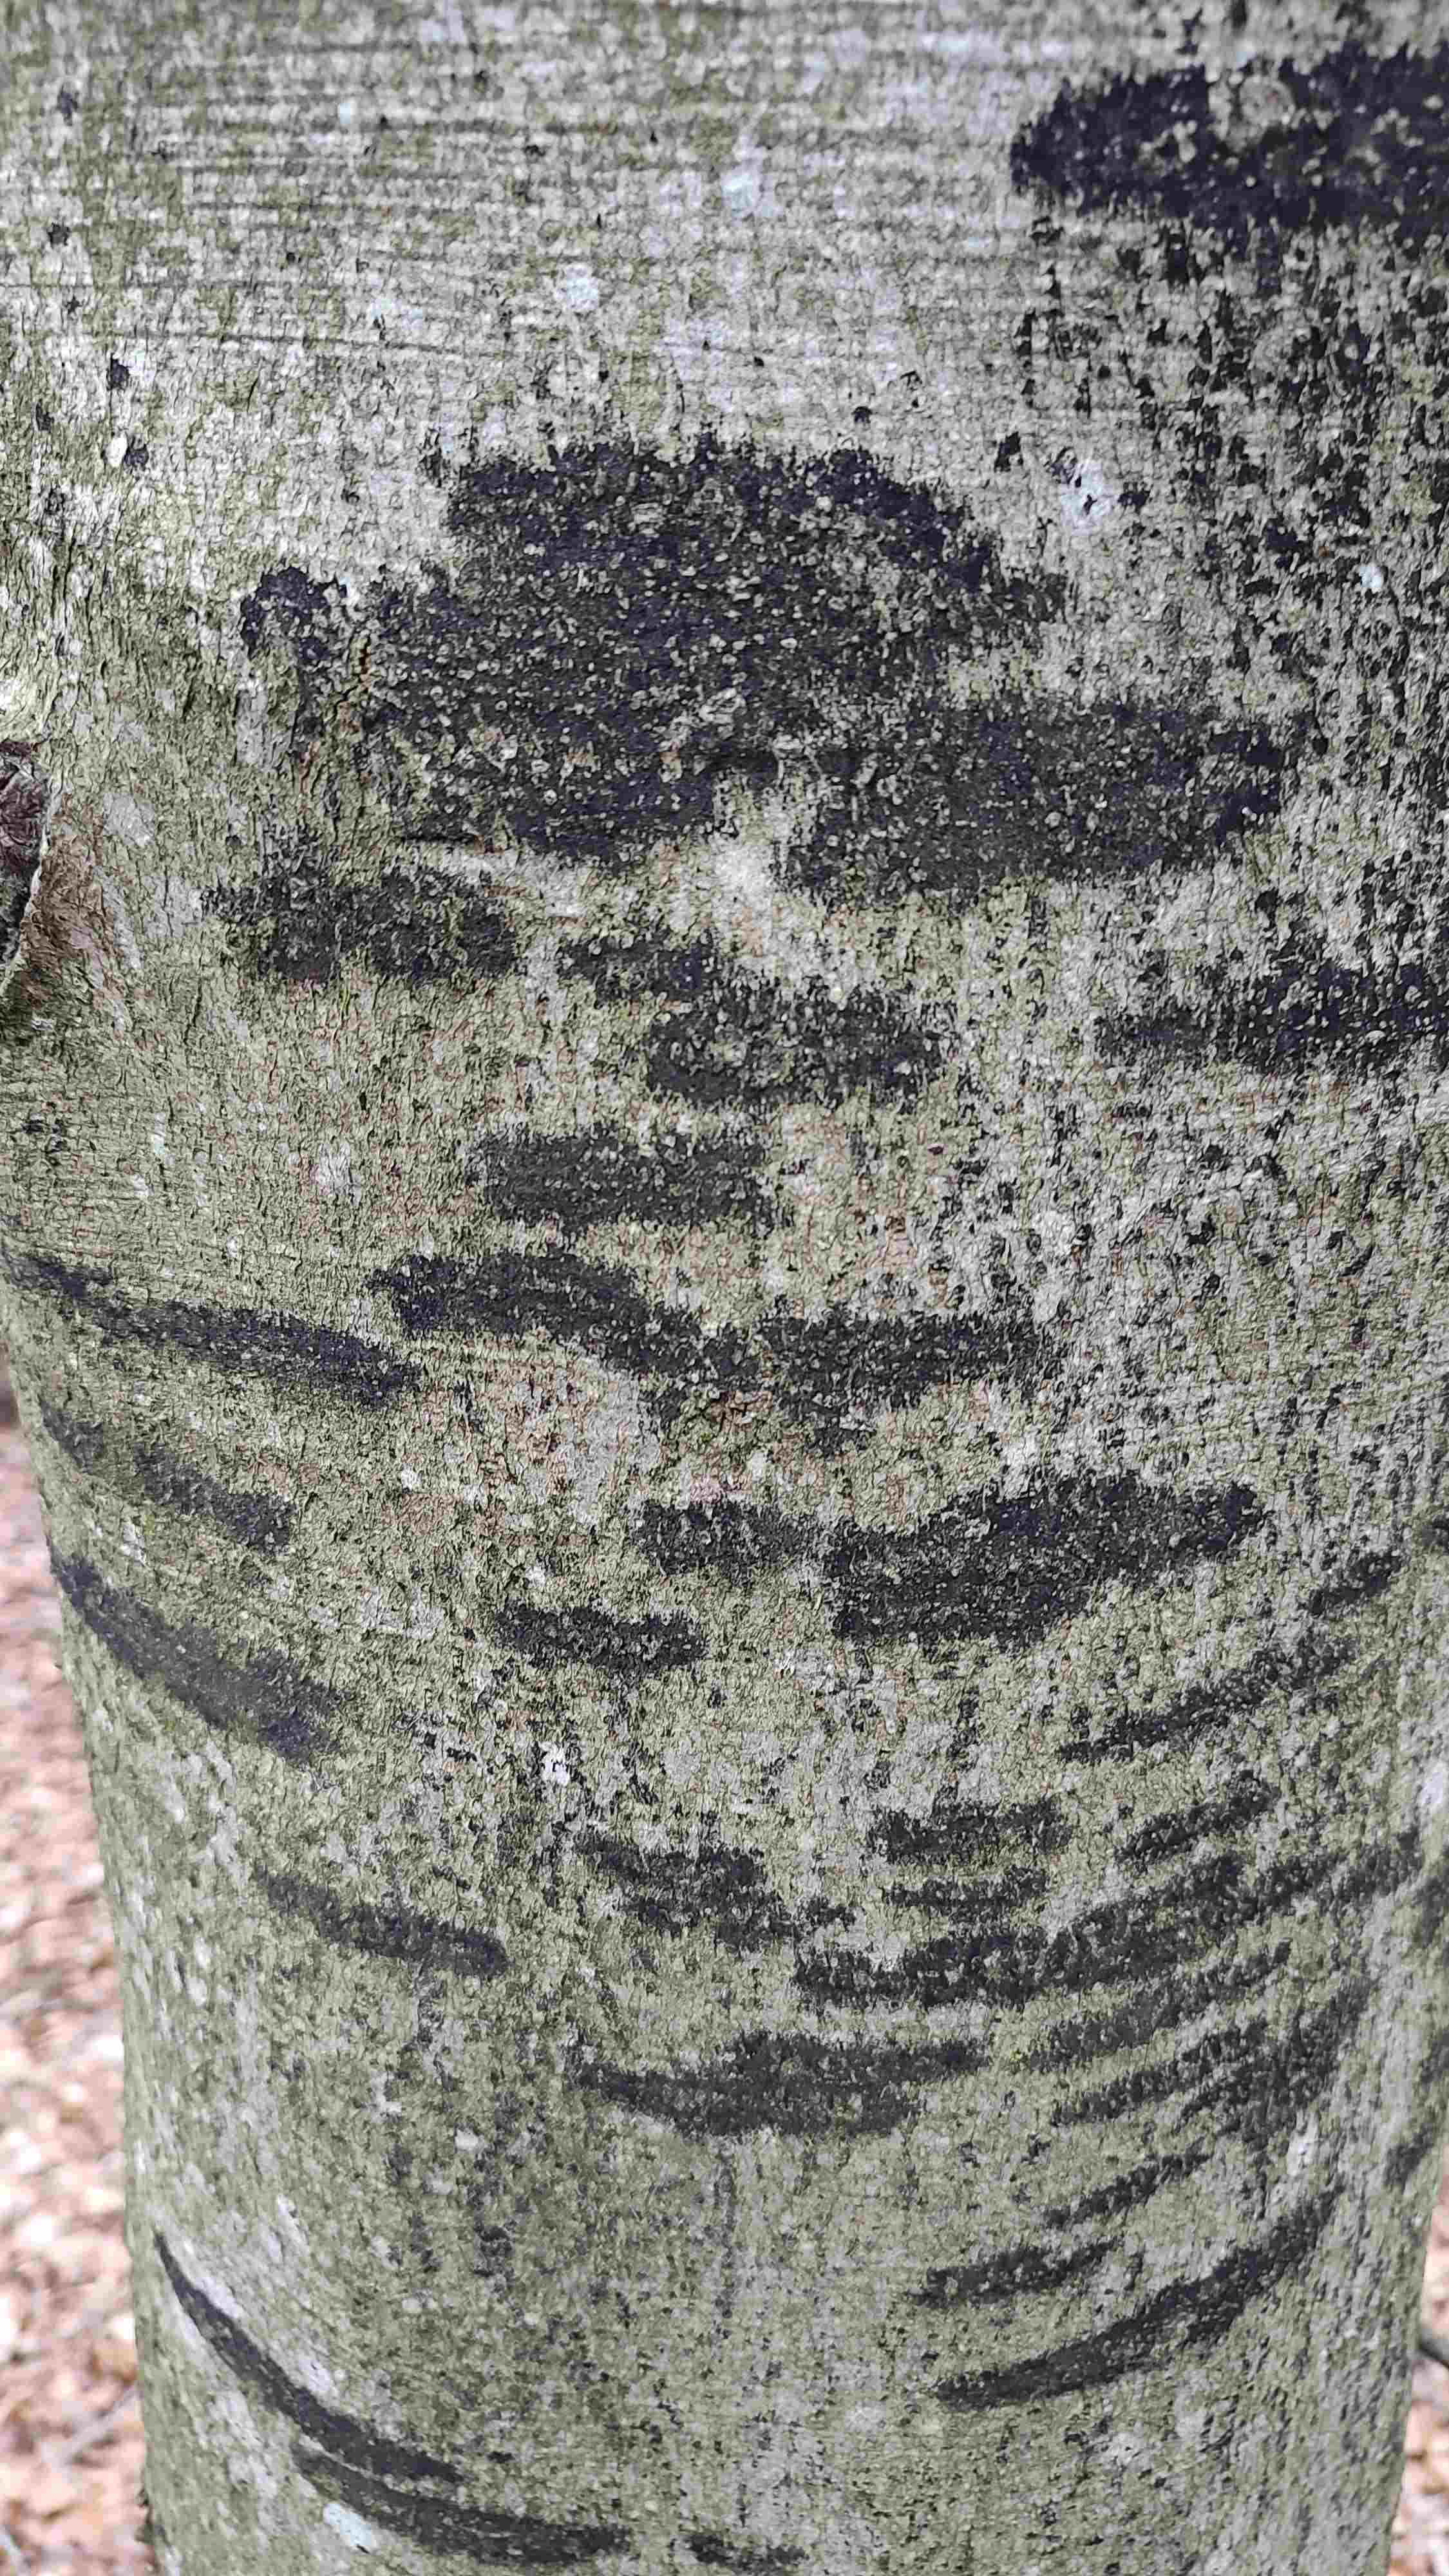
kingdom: Fungi
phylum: Ascomycota
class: Leotiomycetes
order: Rhytismatales
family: Ascodichaenaceae
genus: Ascodichaena
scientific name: Ascodichaena rugosa
